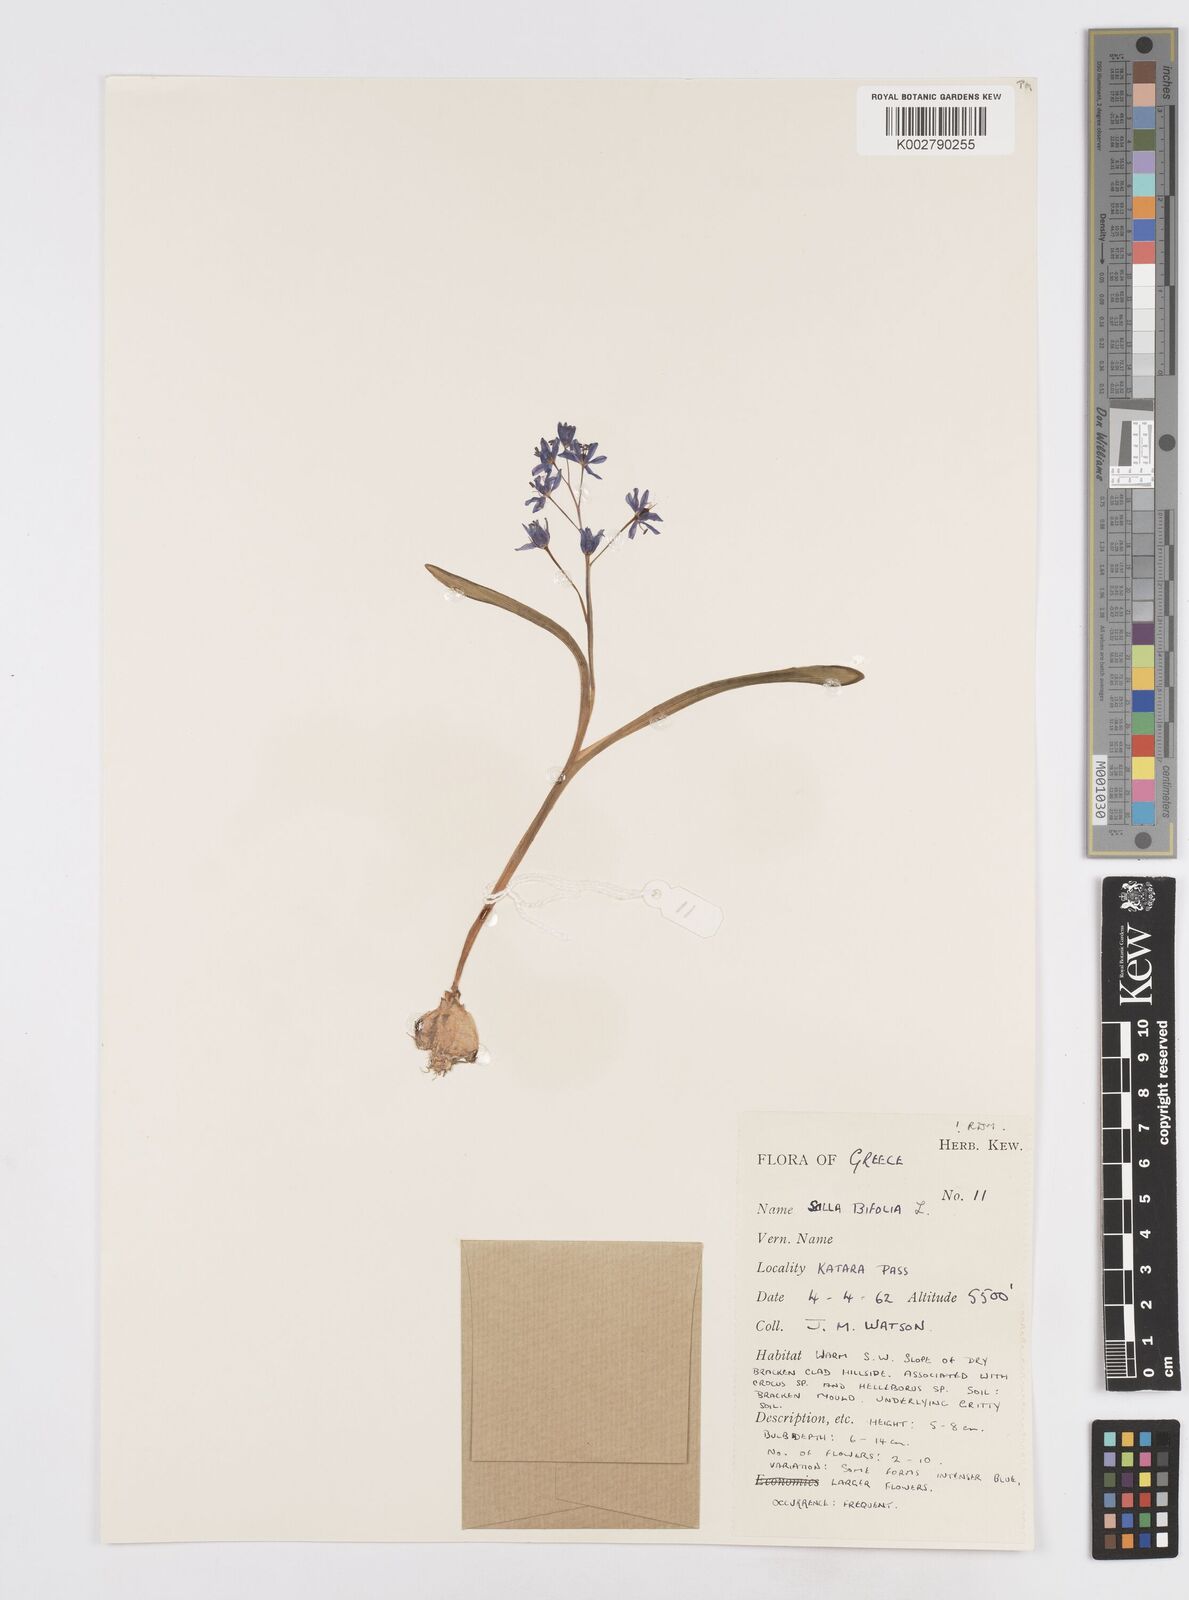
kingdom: Plantae
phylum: Tracheophyta
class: Liliopsida
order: Asparagales
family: Asparagaceae
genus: Scilla
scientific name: Scilla bifolia
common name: Alpine squill
